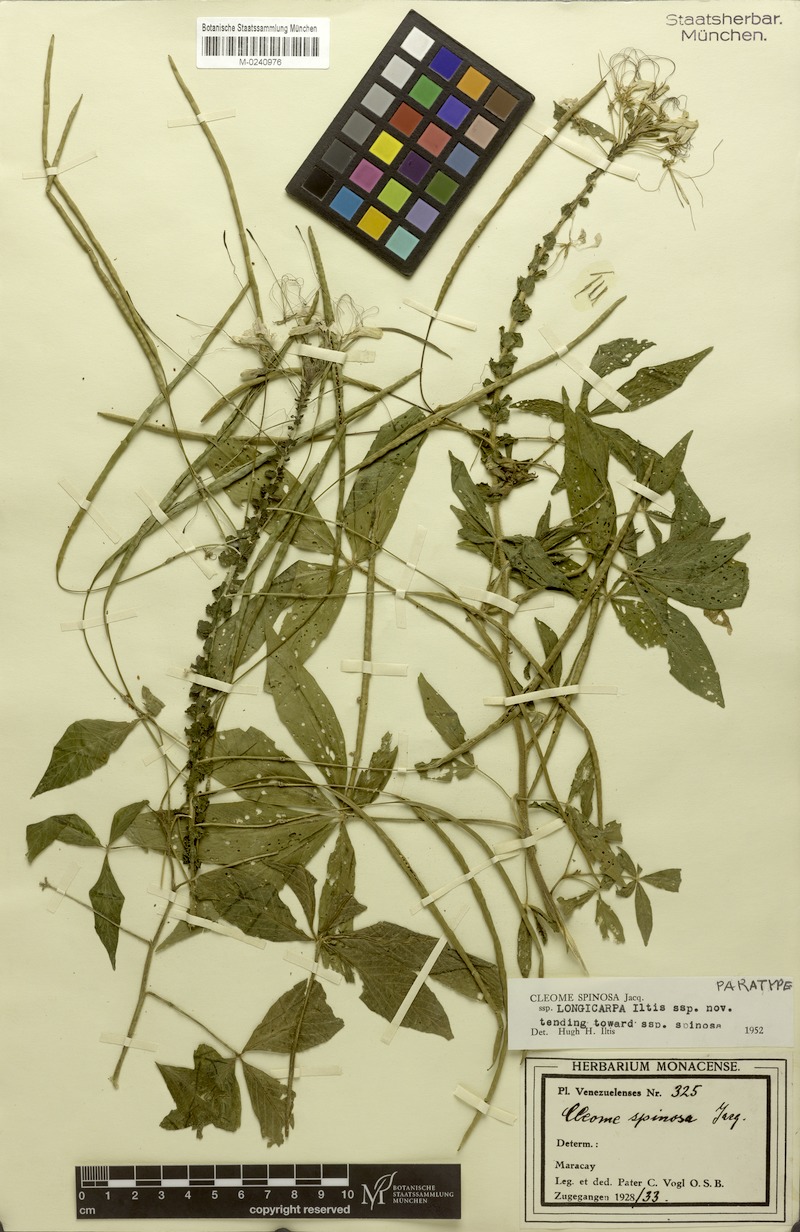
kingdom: Plantae
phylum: Tracheophyta
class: Magnoliopsida
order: Brassicales
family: Cleomaceae
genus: Tarenaya
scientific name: Tarenaya spinosa
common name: Spiny spiderflower
